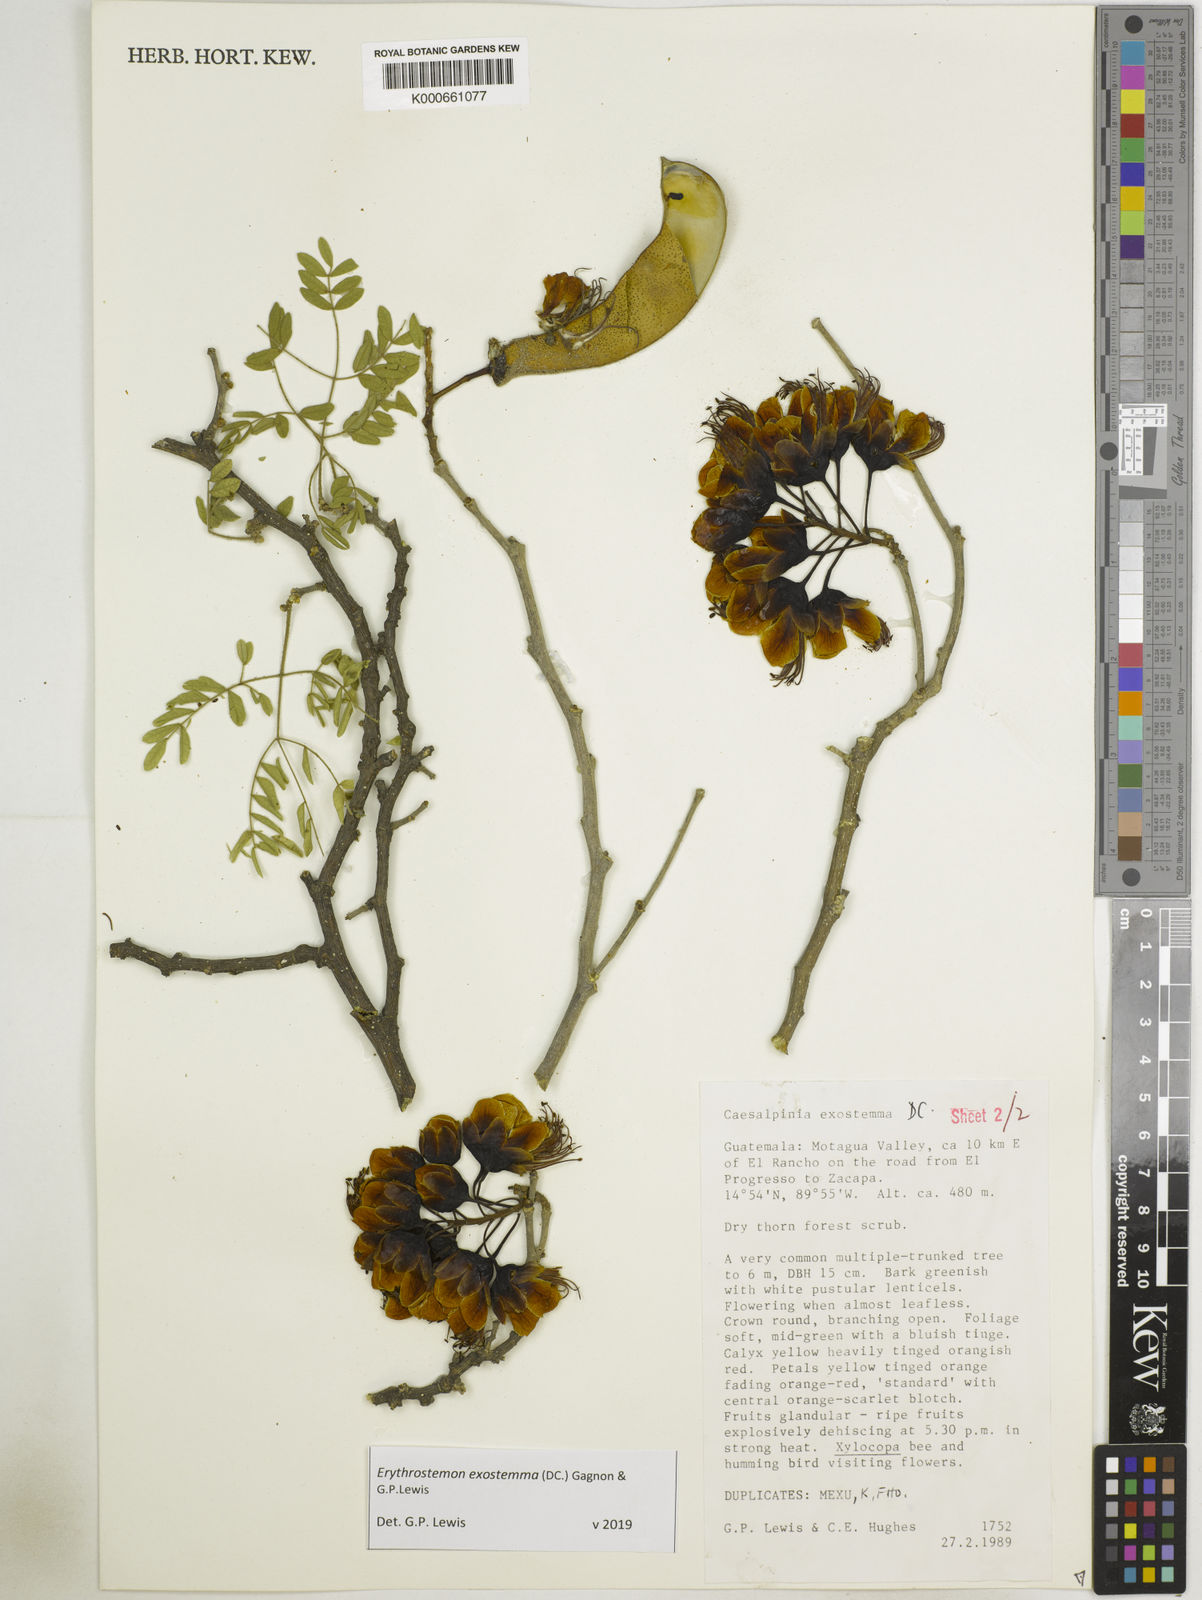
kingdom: Plantae
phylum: Tracheophyta
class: Magnoliopsida
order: Fabales
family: Fabaceae
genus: Erythrostemon
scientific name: Erythrostemon exostemma
